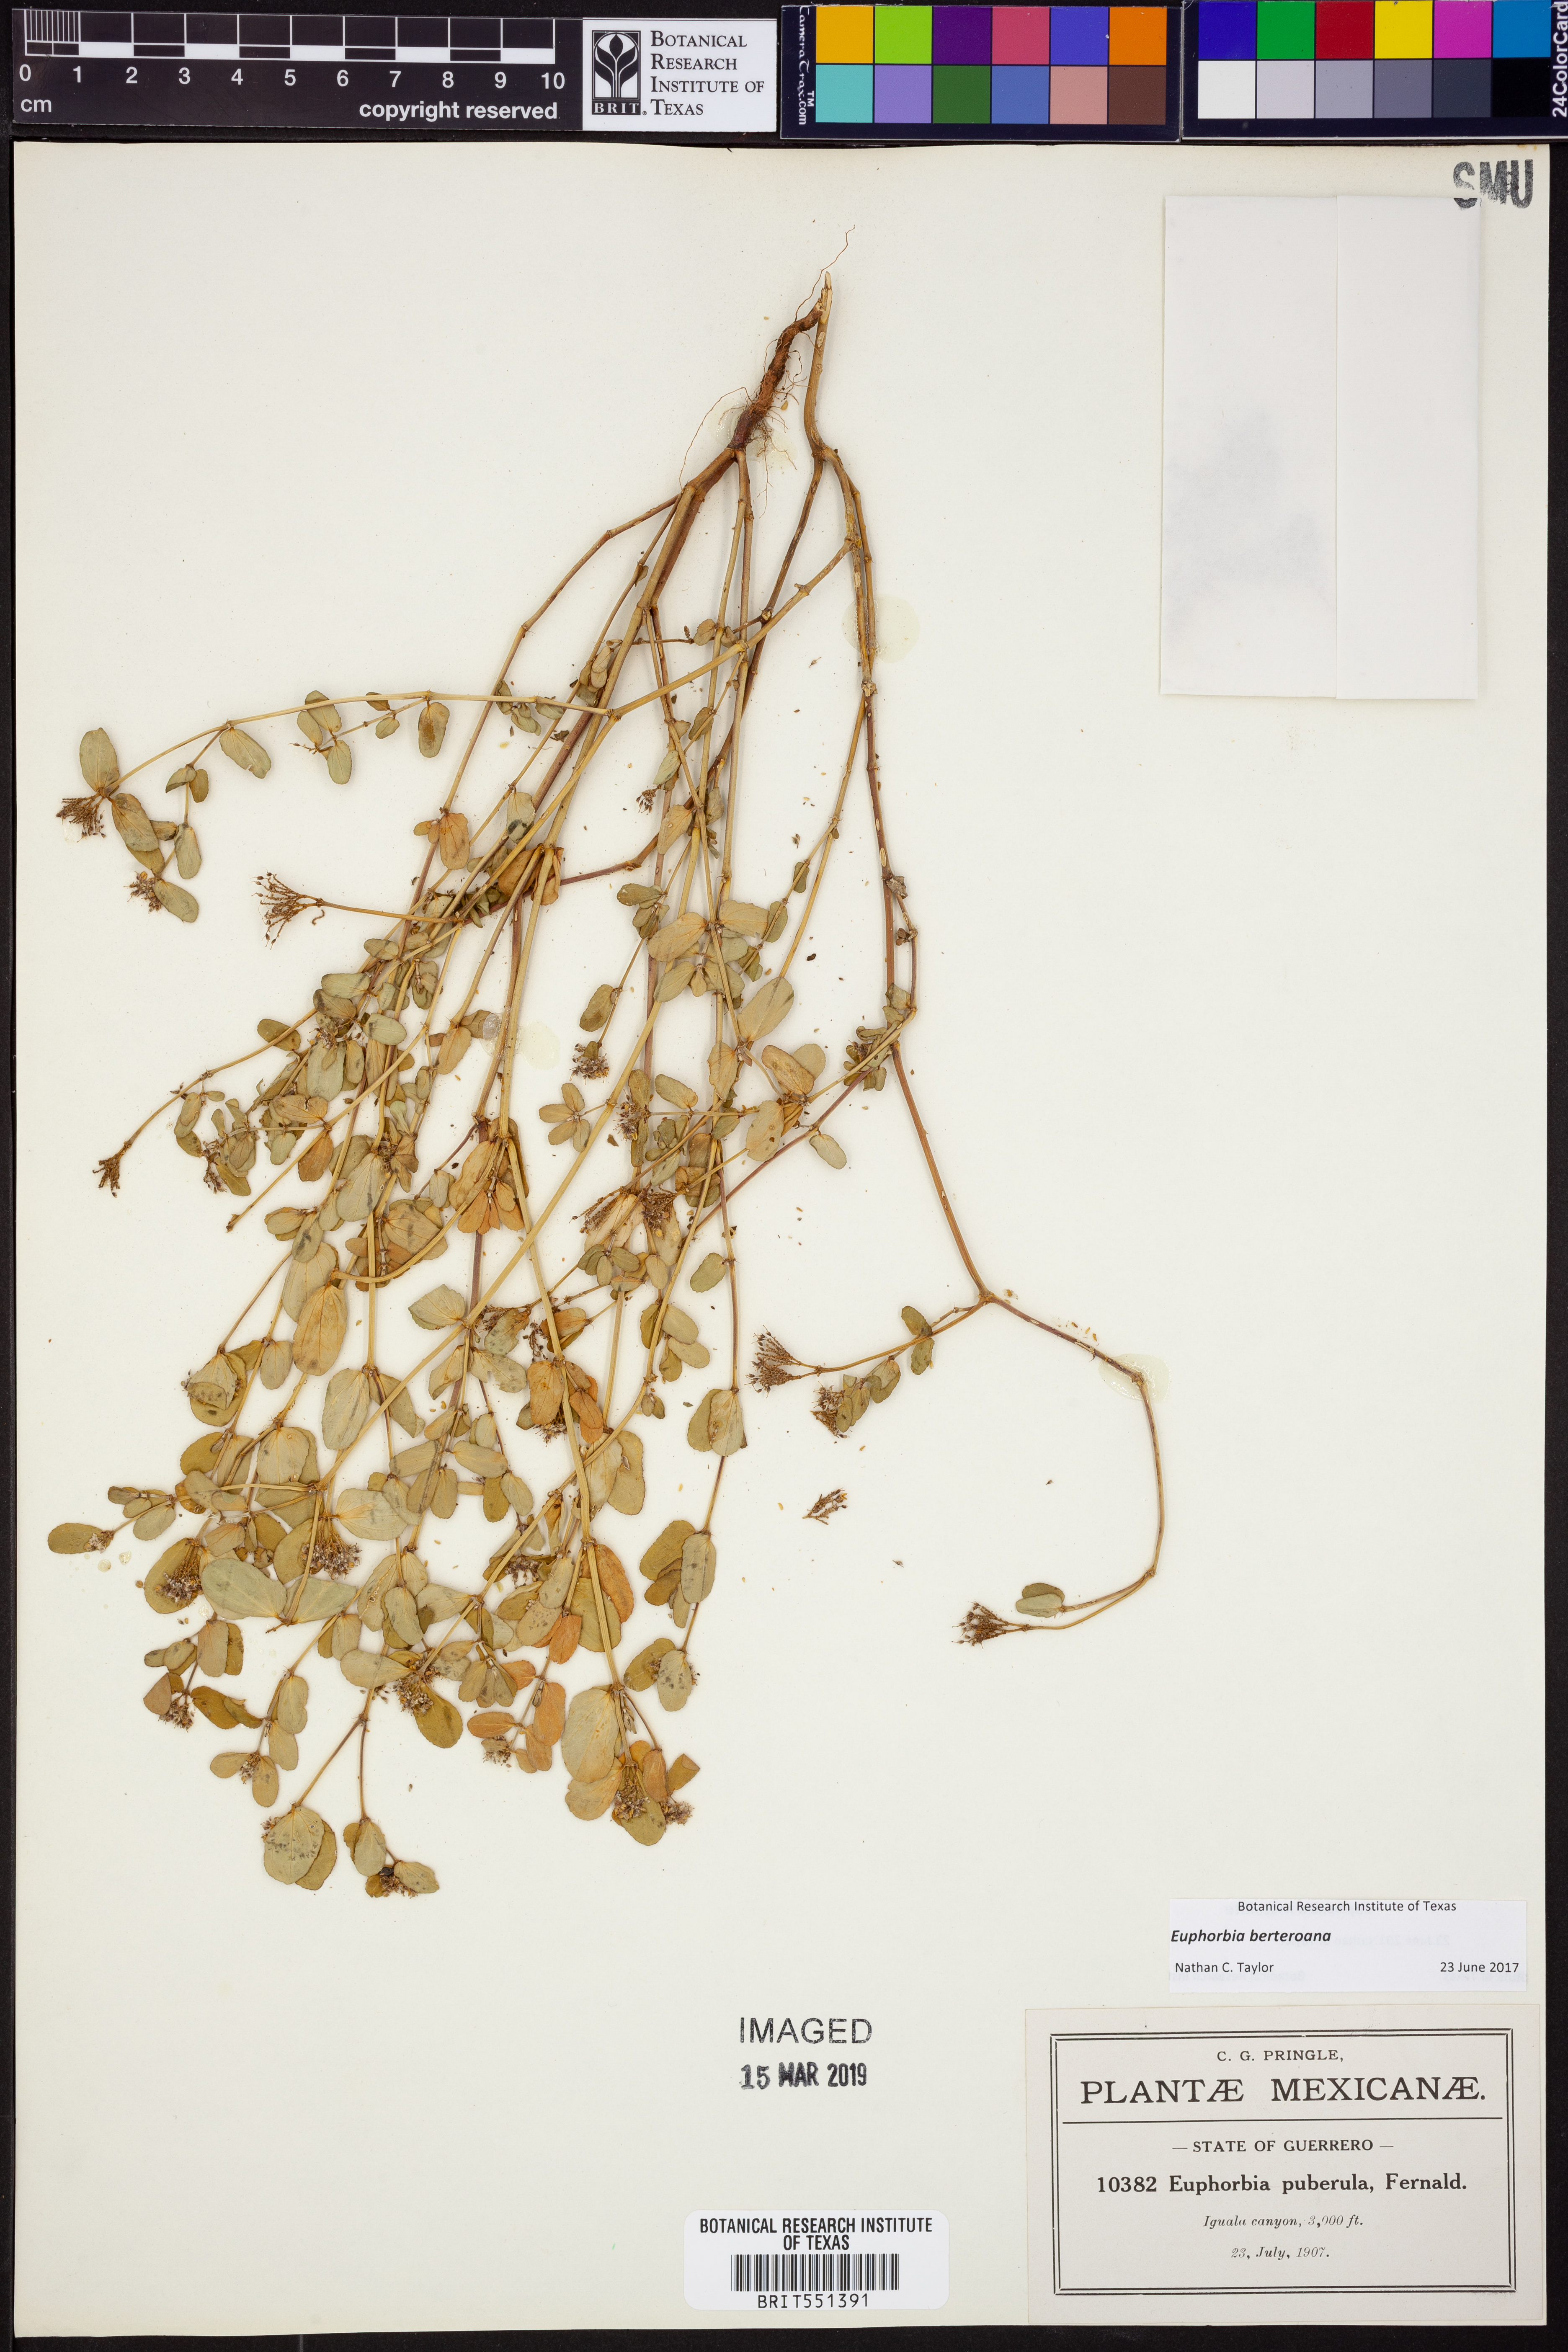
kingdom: Plantae
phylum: Tracheophyta
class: Magnoliopsida
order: Malpighiales
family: Euphorbiaceae
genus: Euphorbia
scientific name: Euphorbia berteroana
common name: Bertero's sandmat
